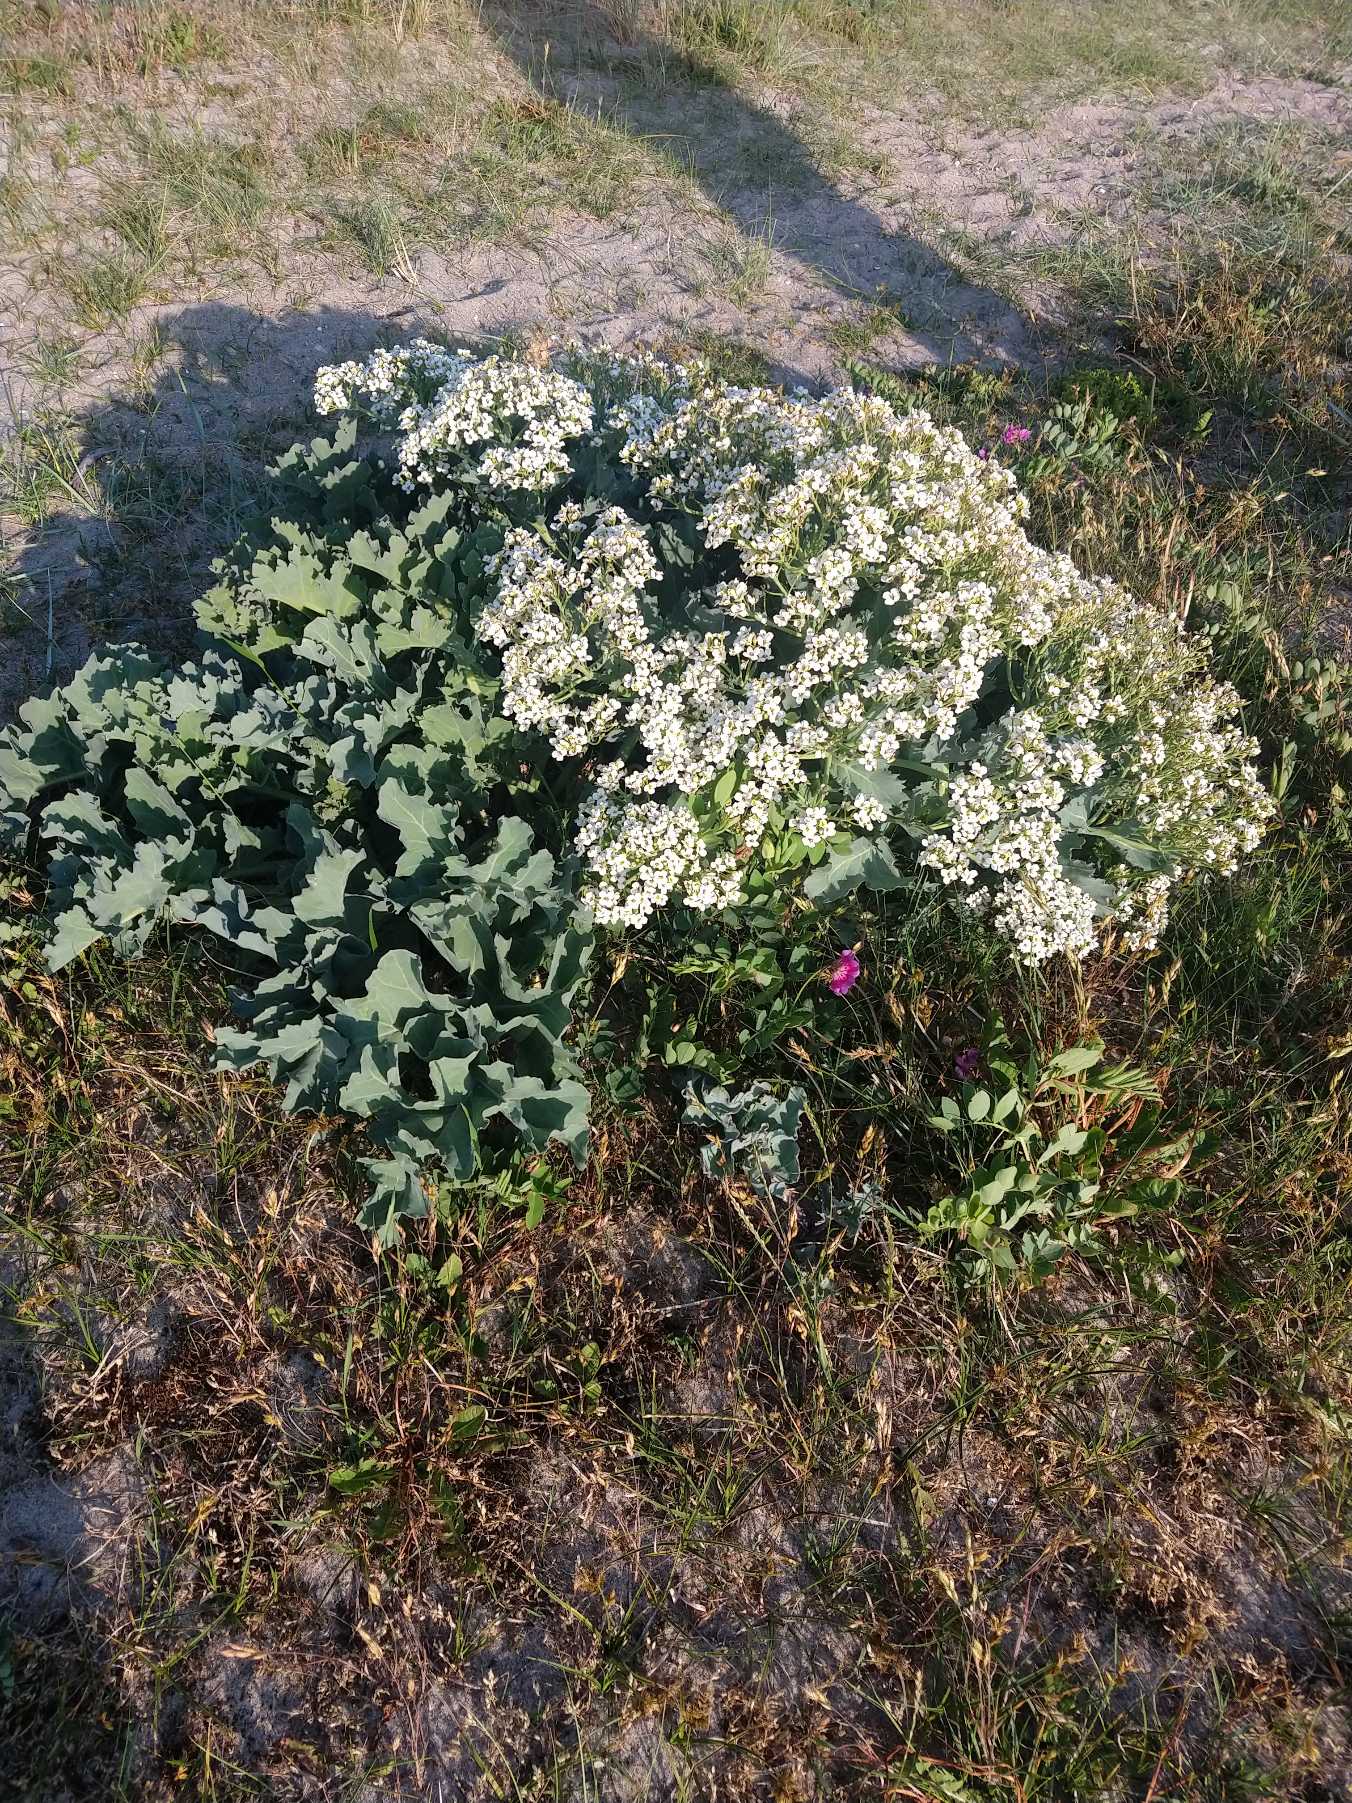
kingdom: Plantae
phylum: Tracheophyta
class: Magnoliopsida
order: Brassicales
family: Brassicaceae
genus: Crambe
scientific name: Crambe maritima
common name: Strandkål
